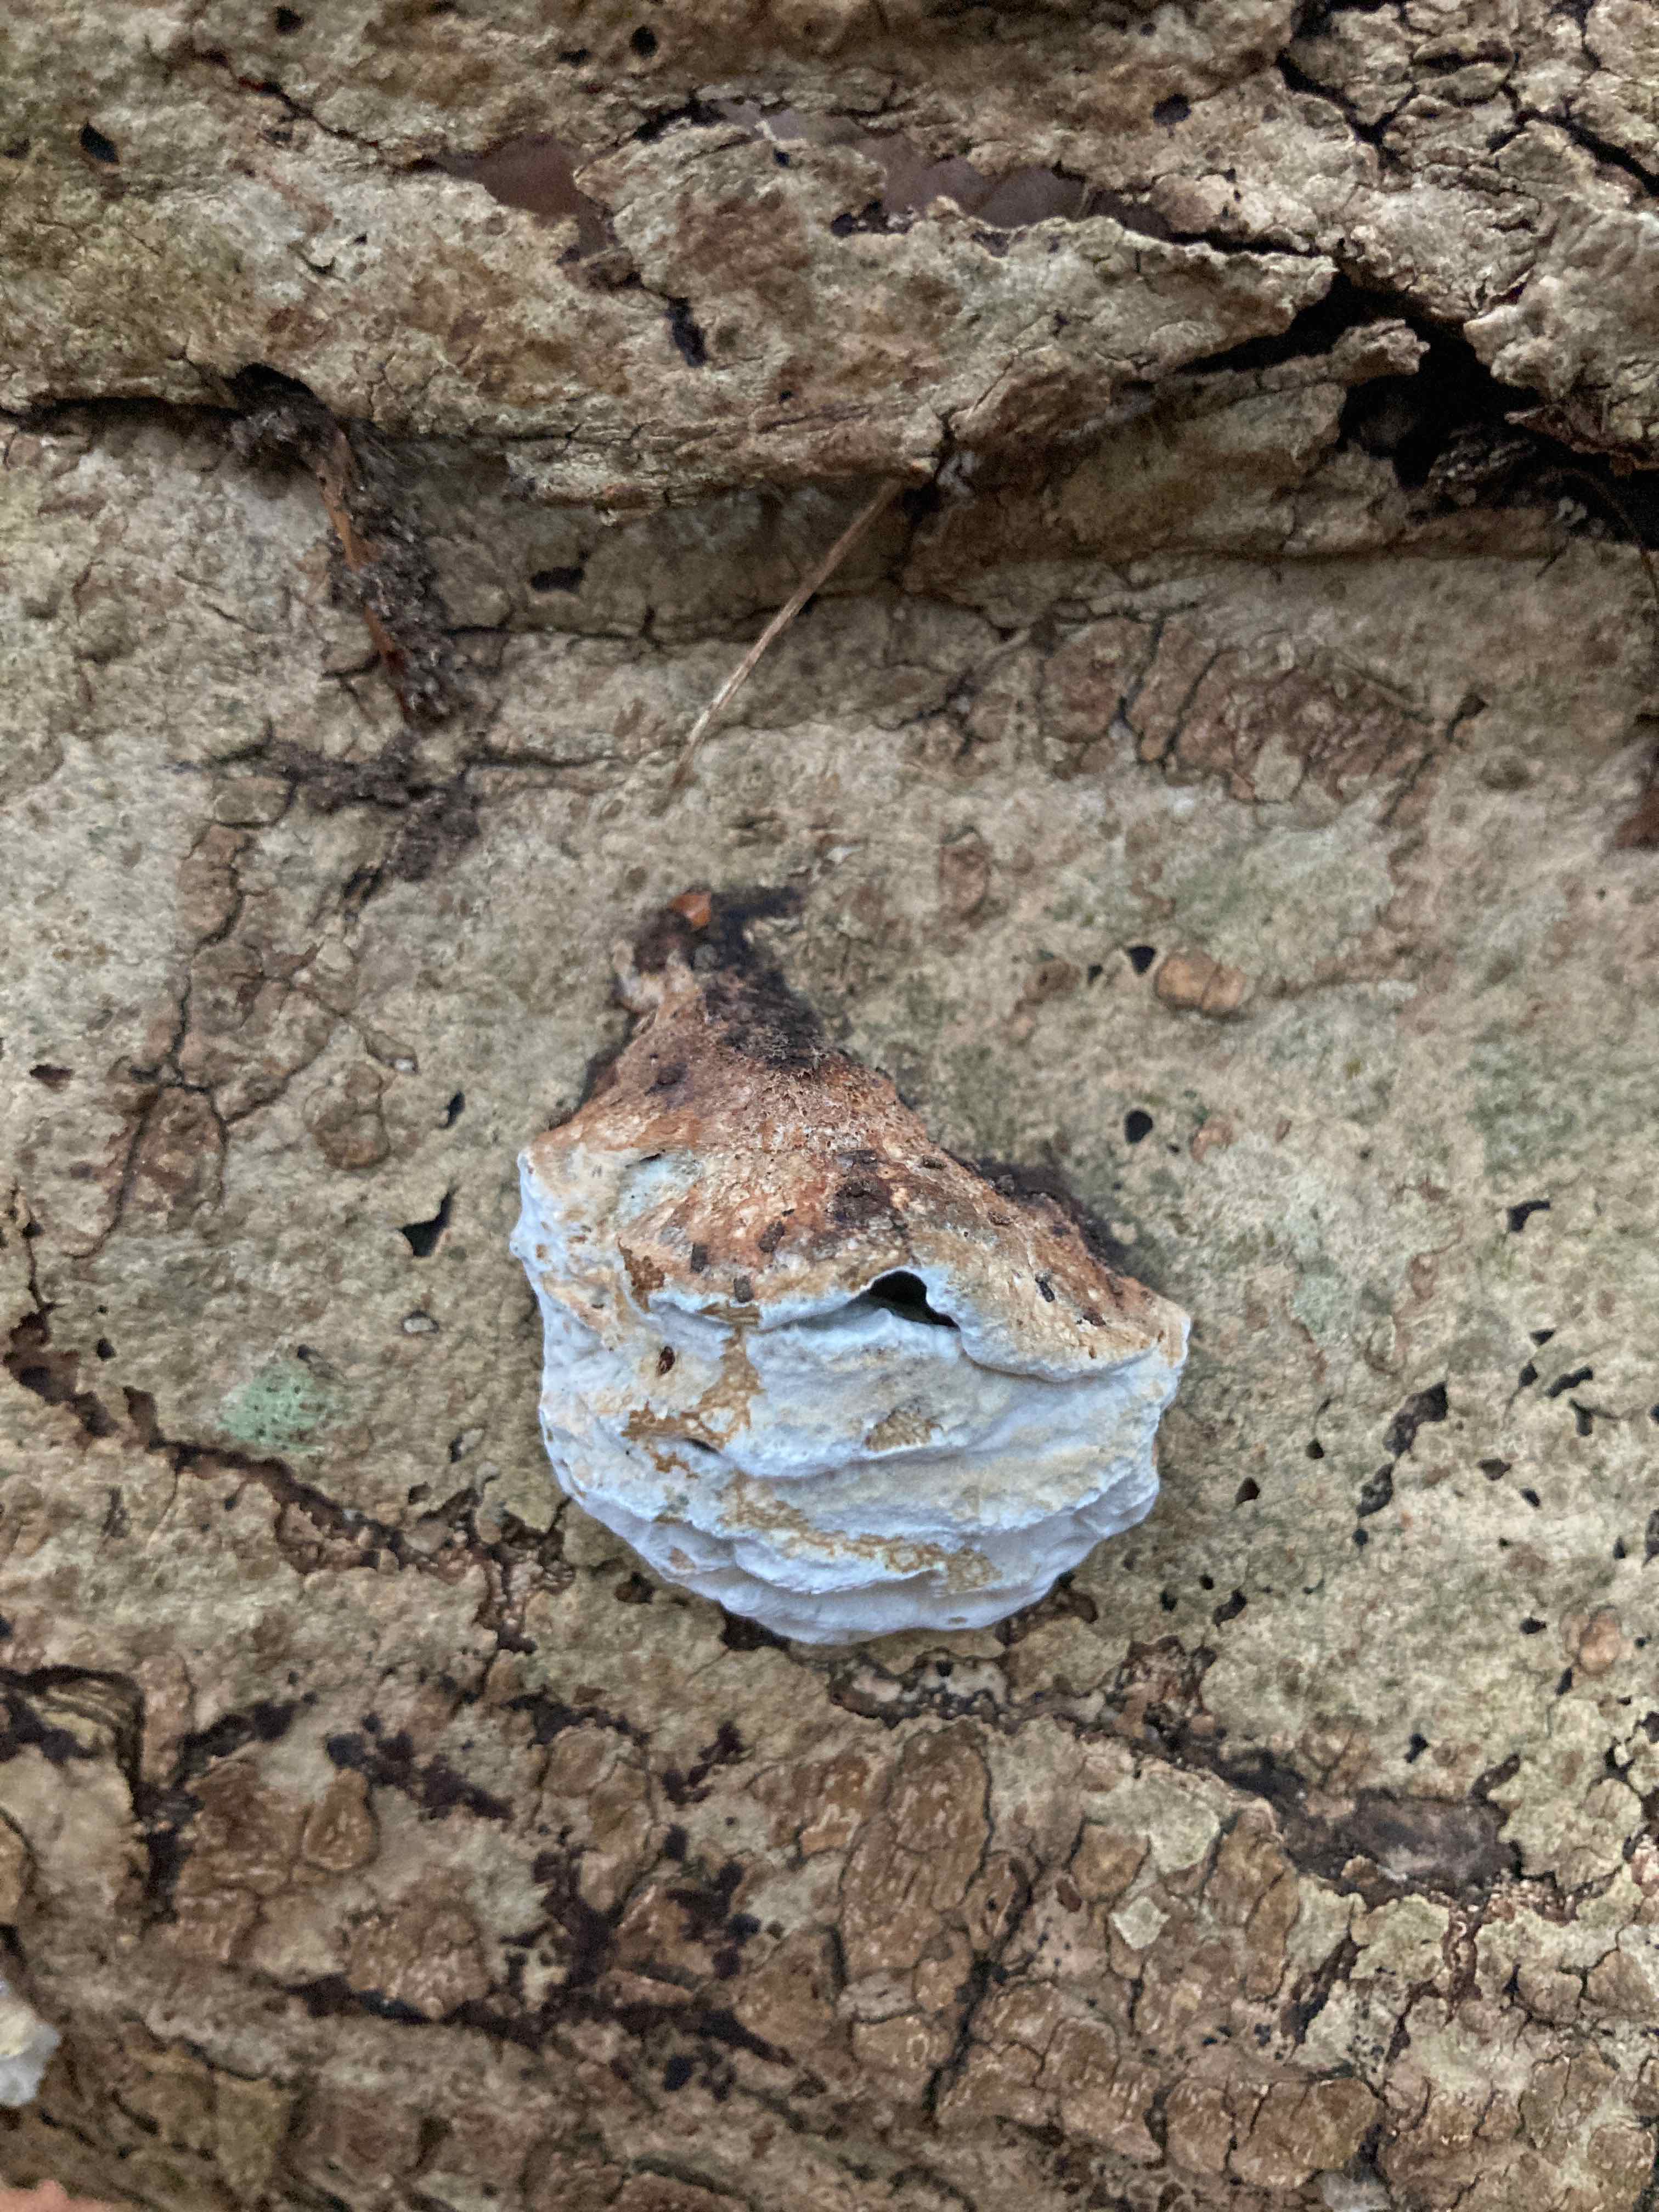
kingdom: Fungi
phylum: Basidiomycota
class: Agaricomycetes
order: Polyporales
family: Incrustoporiaceae
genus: Skeletocutis
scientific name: Skeletocutis nemoralis
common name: stor krystalporesvamp
